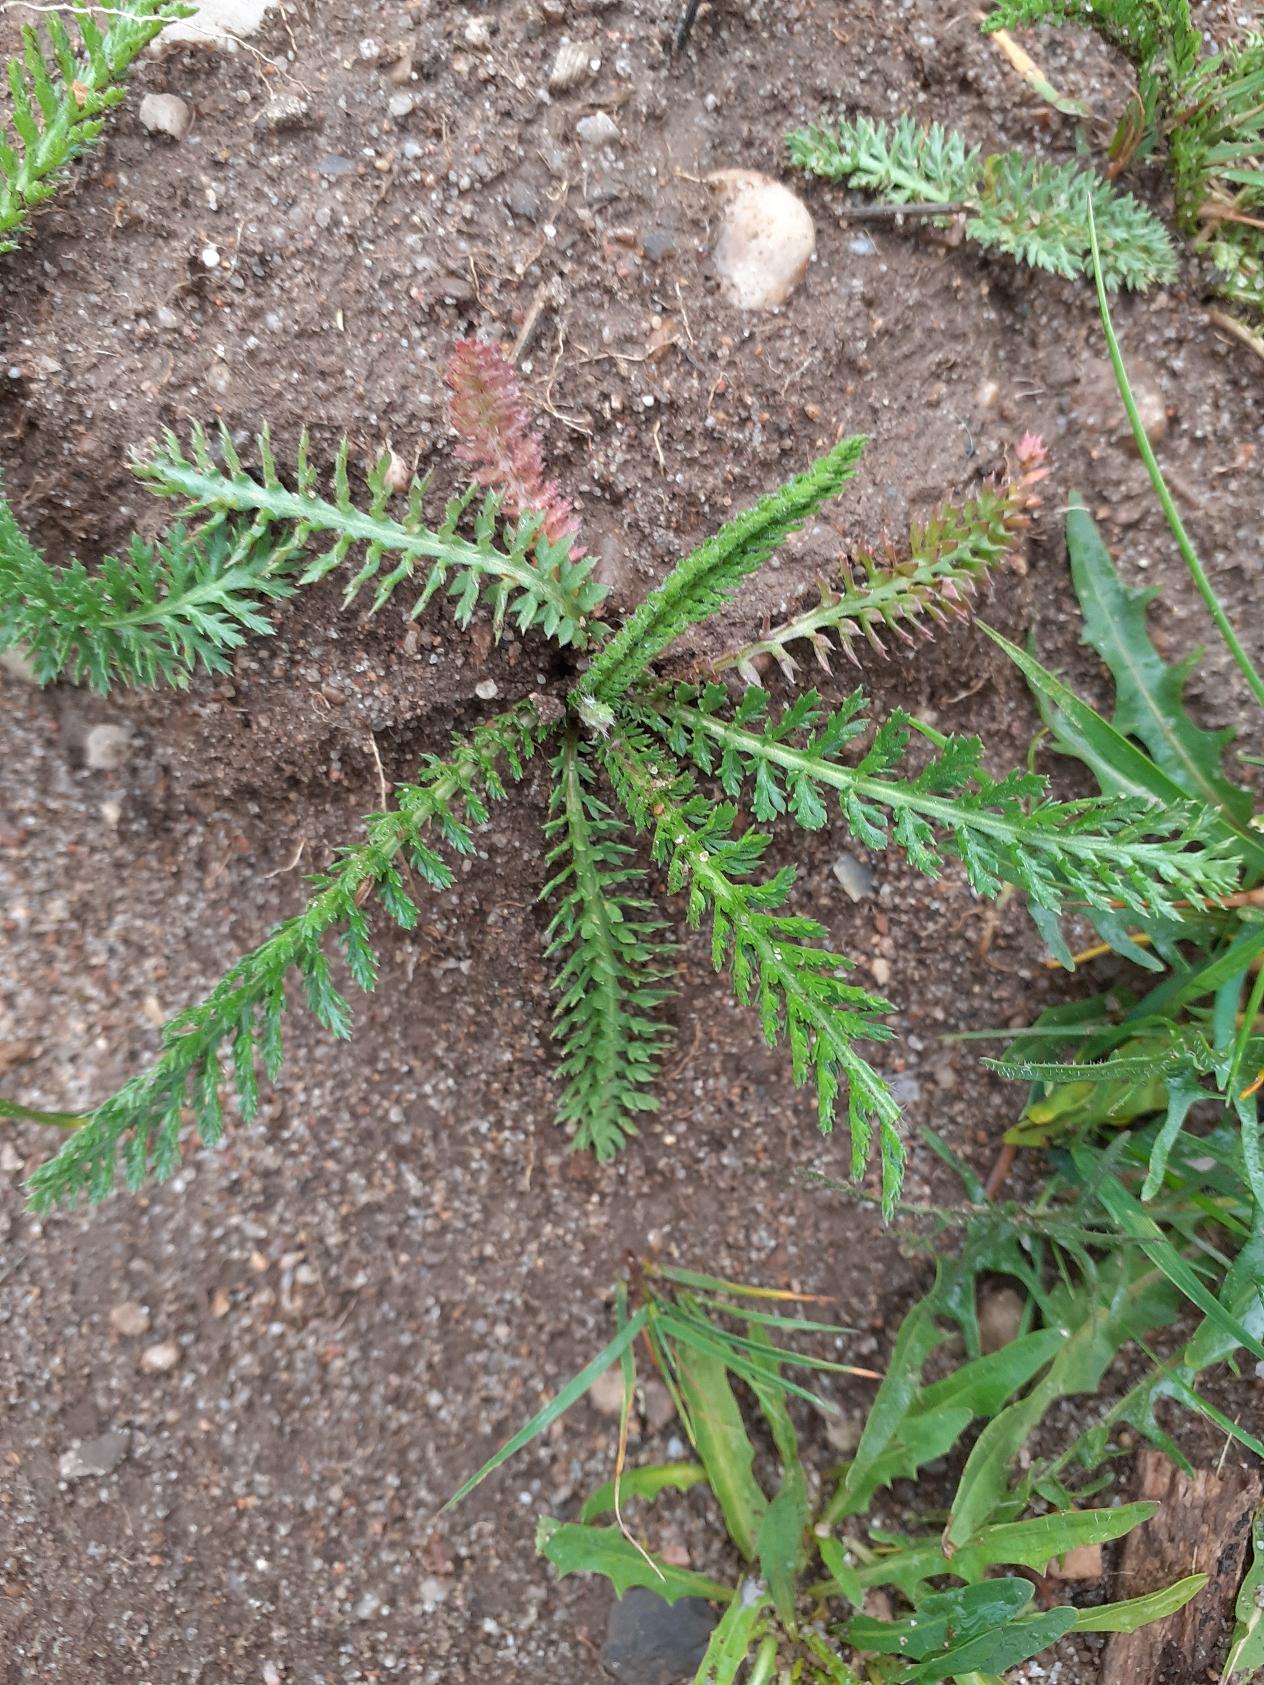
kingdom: Plantae
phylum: Tracheophyta
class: Magnoliopsida
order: Asterales
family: Asteraceae
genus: Achillea
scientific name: Achillea millefolium
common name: Almindelig røllike
